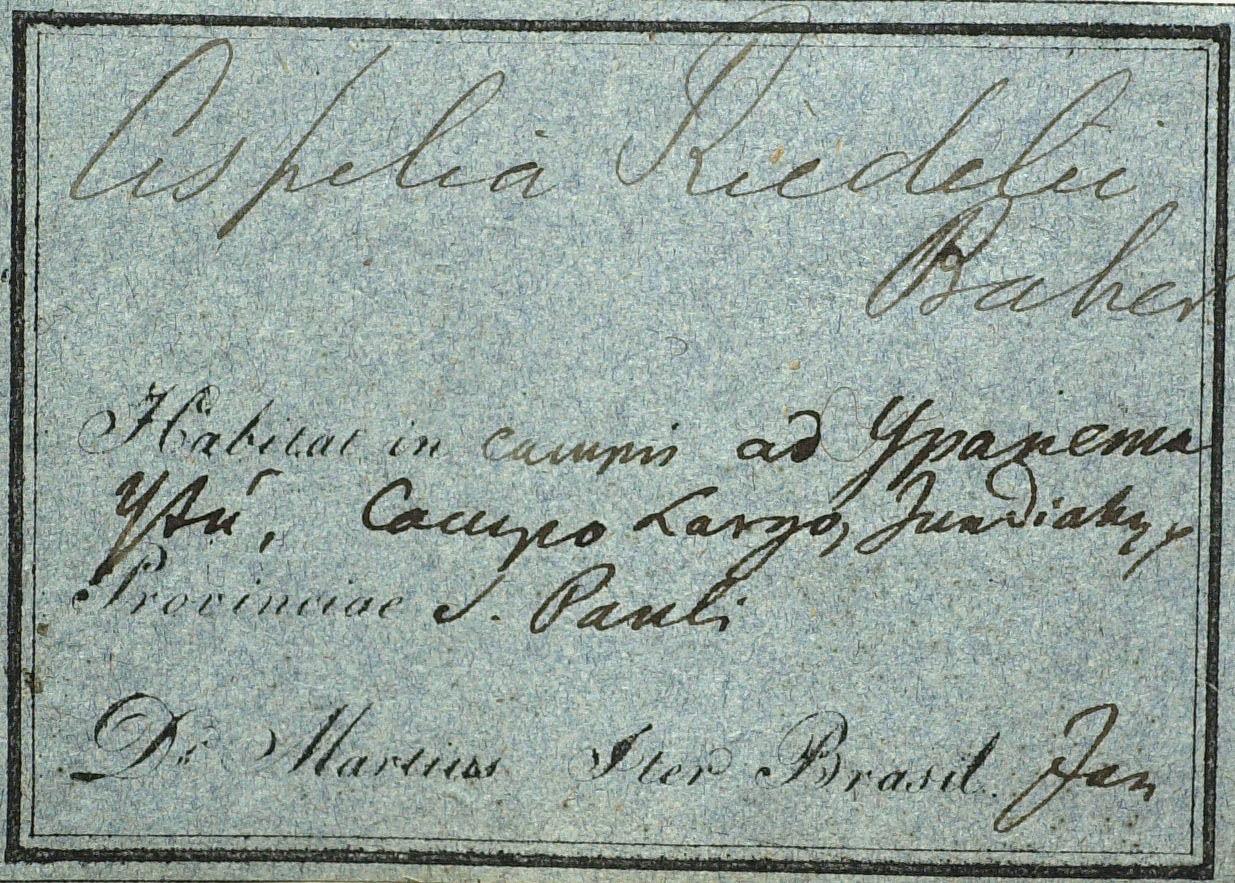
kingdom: Plantae
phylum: Tracheophyta
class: Magnoliopsida
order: Asterales
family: Asteraceae
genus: Wedelia
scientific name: Wedelia riedellii
